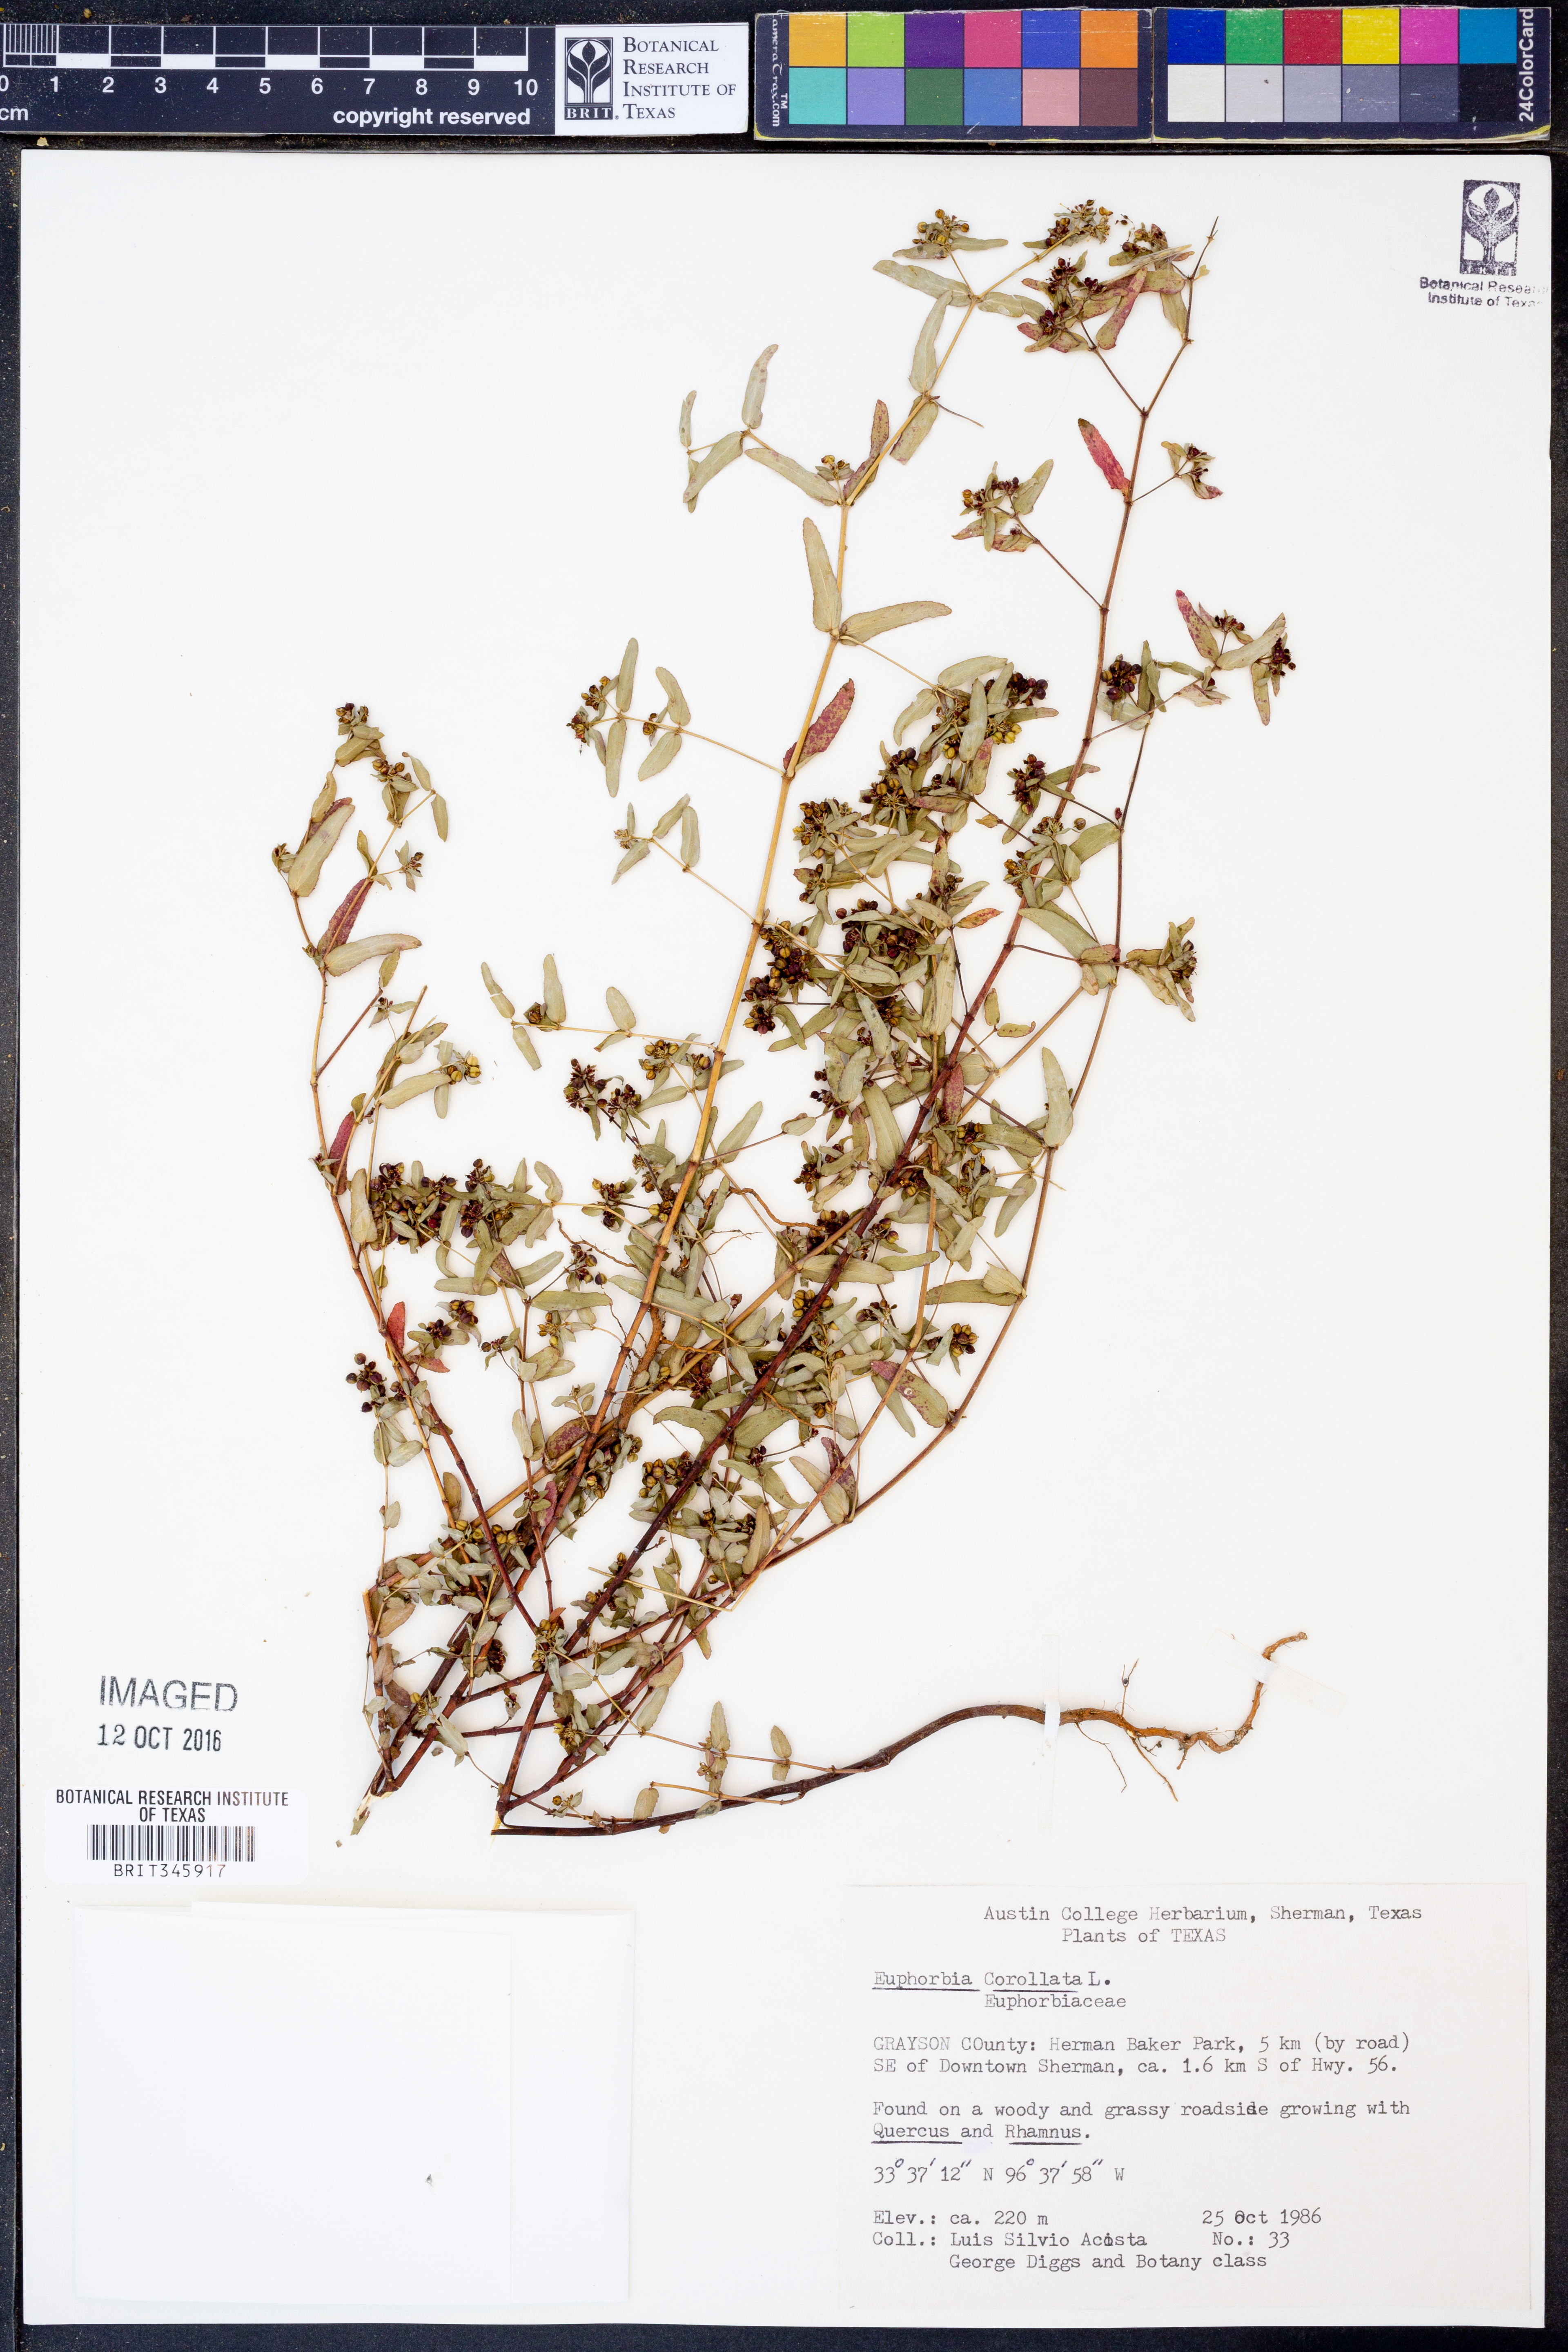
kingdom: Plantae
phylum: Tracheophyta
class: Magnoliopsida
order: Malpighiales
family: Euphorbiaceae
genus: Euphorbia
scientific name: Euphorbia corollata
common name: Flowering spurge
